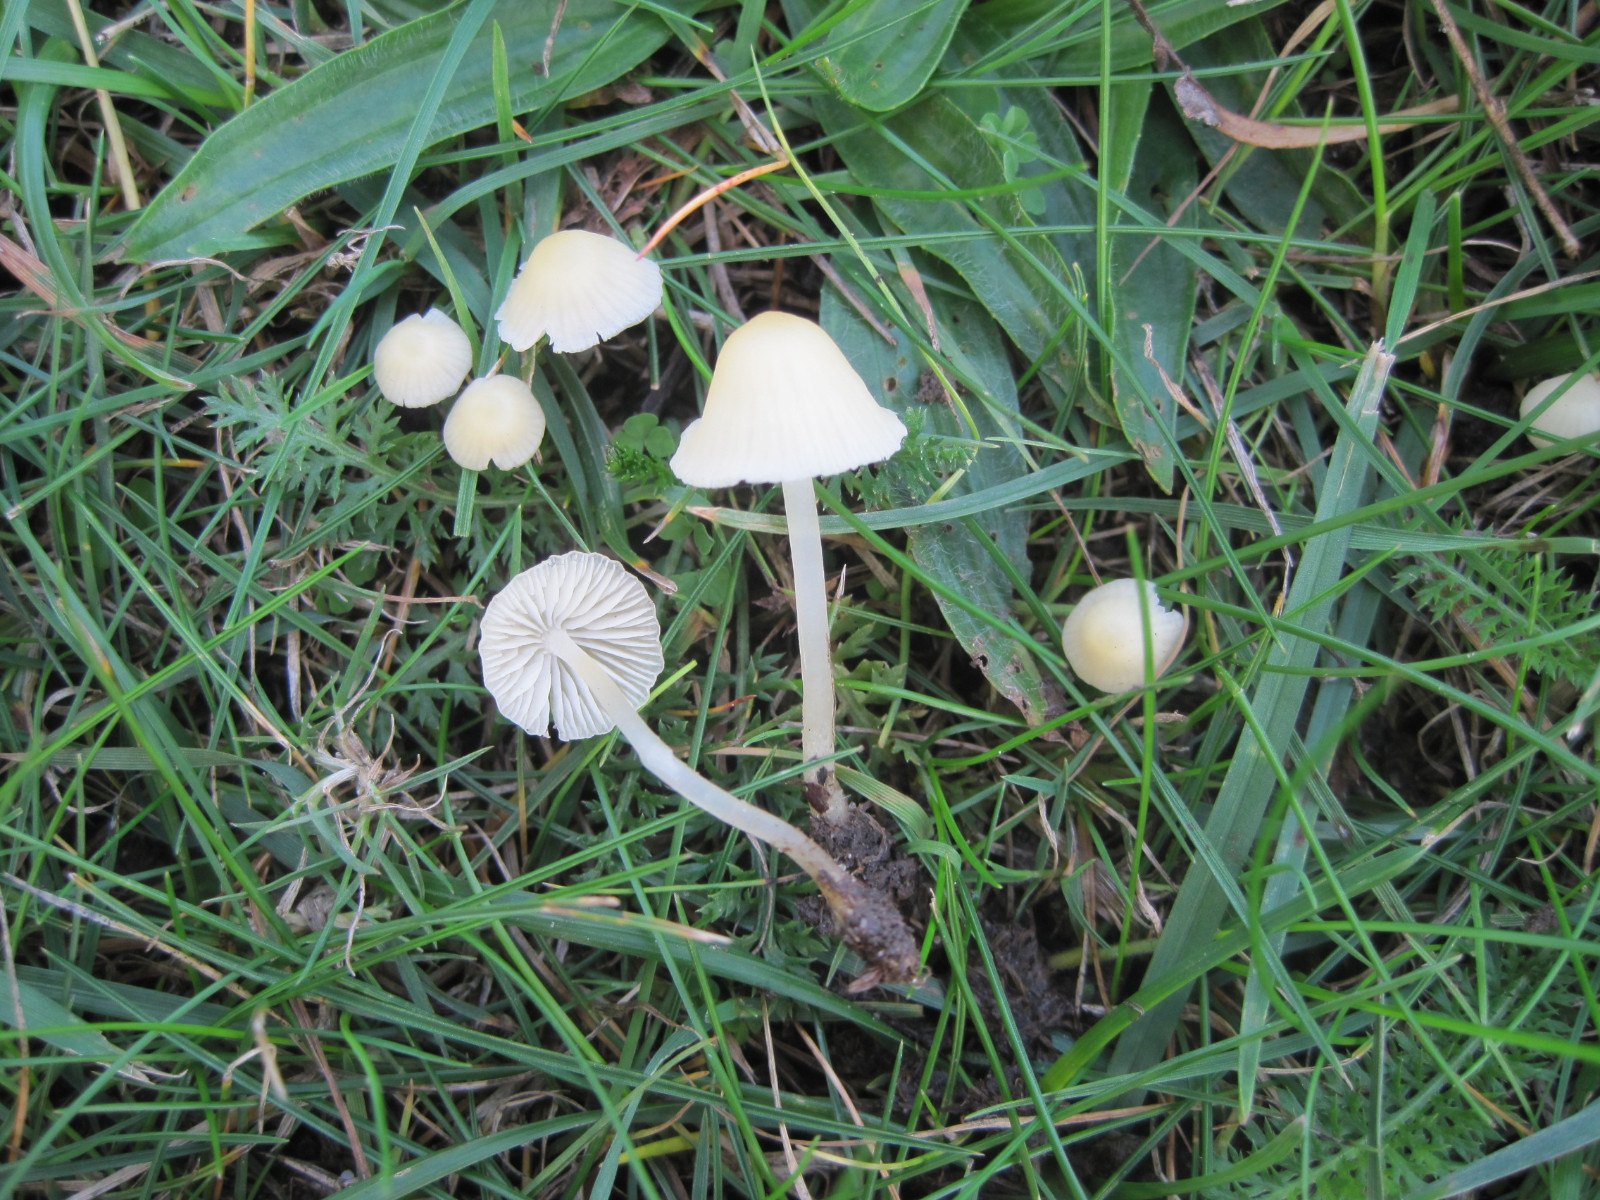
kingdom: Fungi
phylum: Basidiomycota
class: Agaricomycetes
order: Agaricales
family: Mycenaceae
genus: Atheniella
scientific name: Atheniella flavoalba
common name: gulhvid huesvamp
